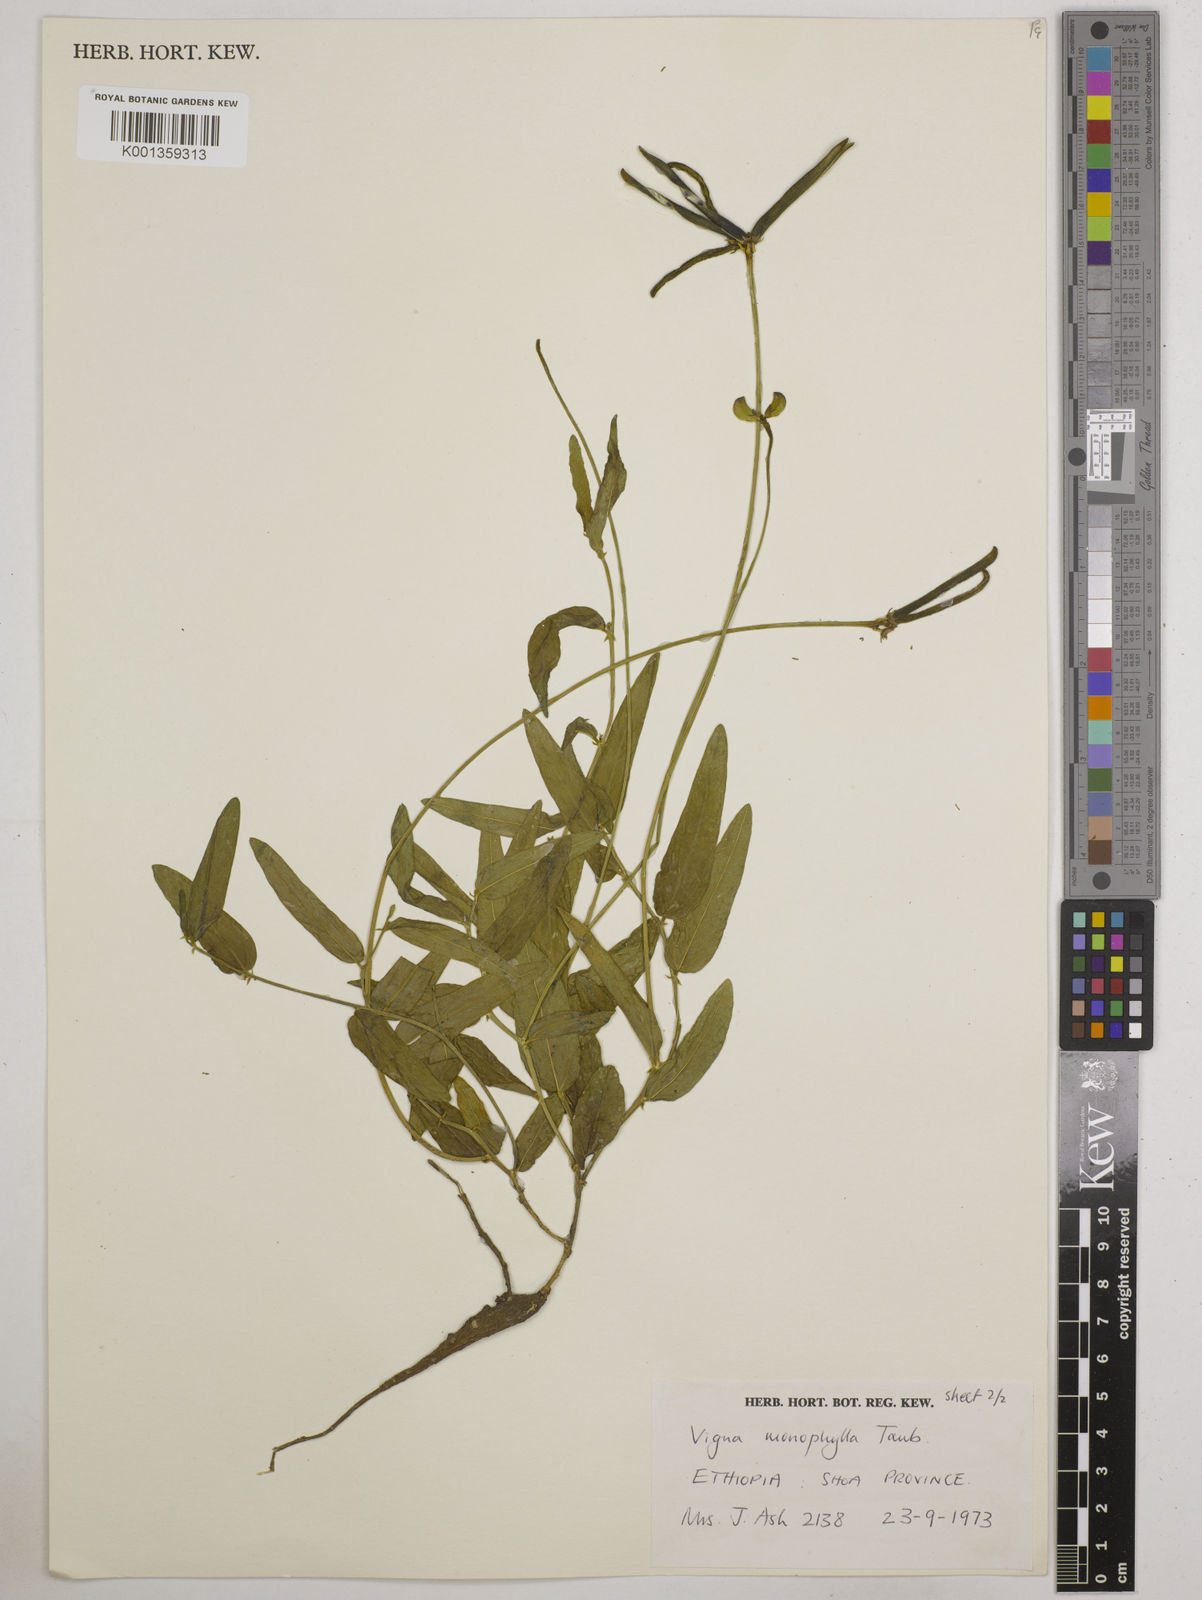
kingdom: Plantae
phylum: Tracheophyta
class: Magnoliopsida
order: Fabales
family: Fabaceae
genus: Vigna
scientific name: Vigna monophylla
